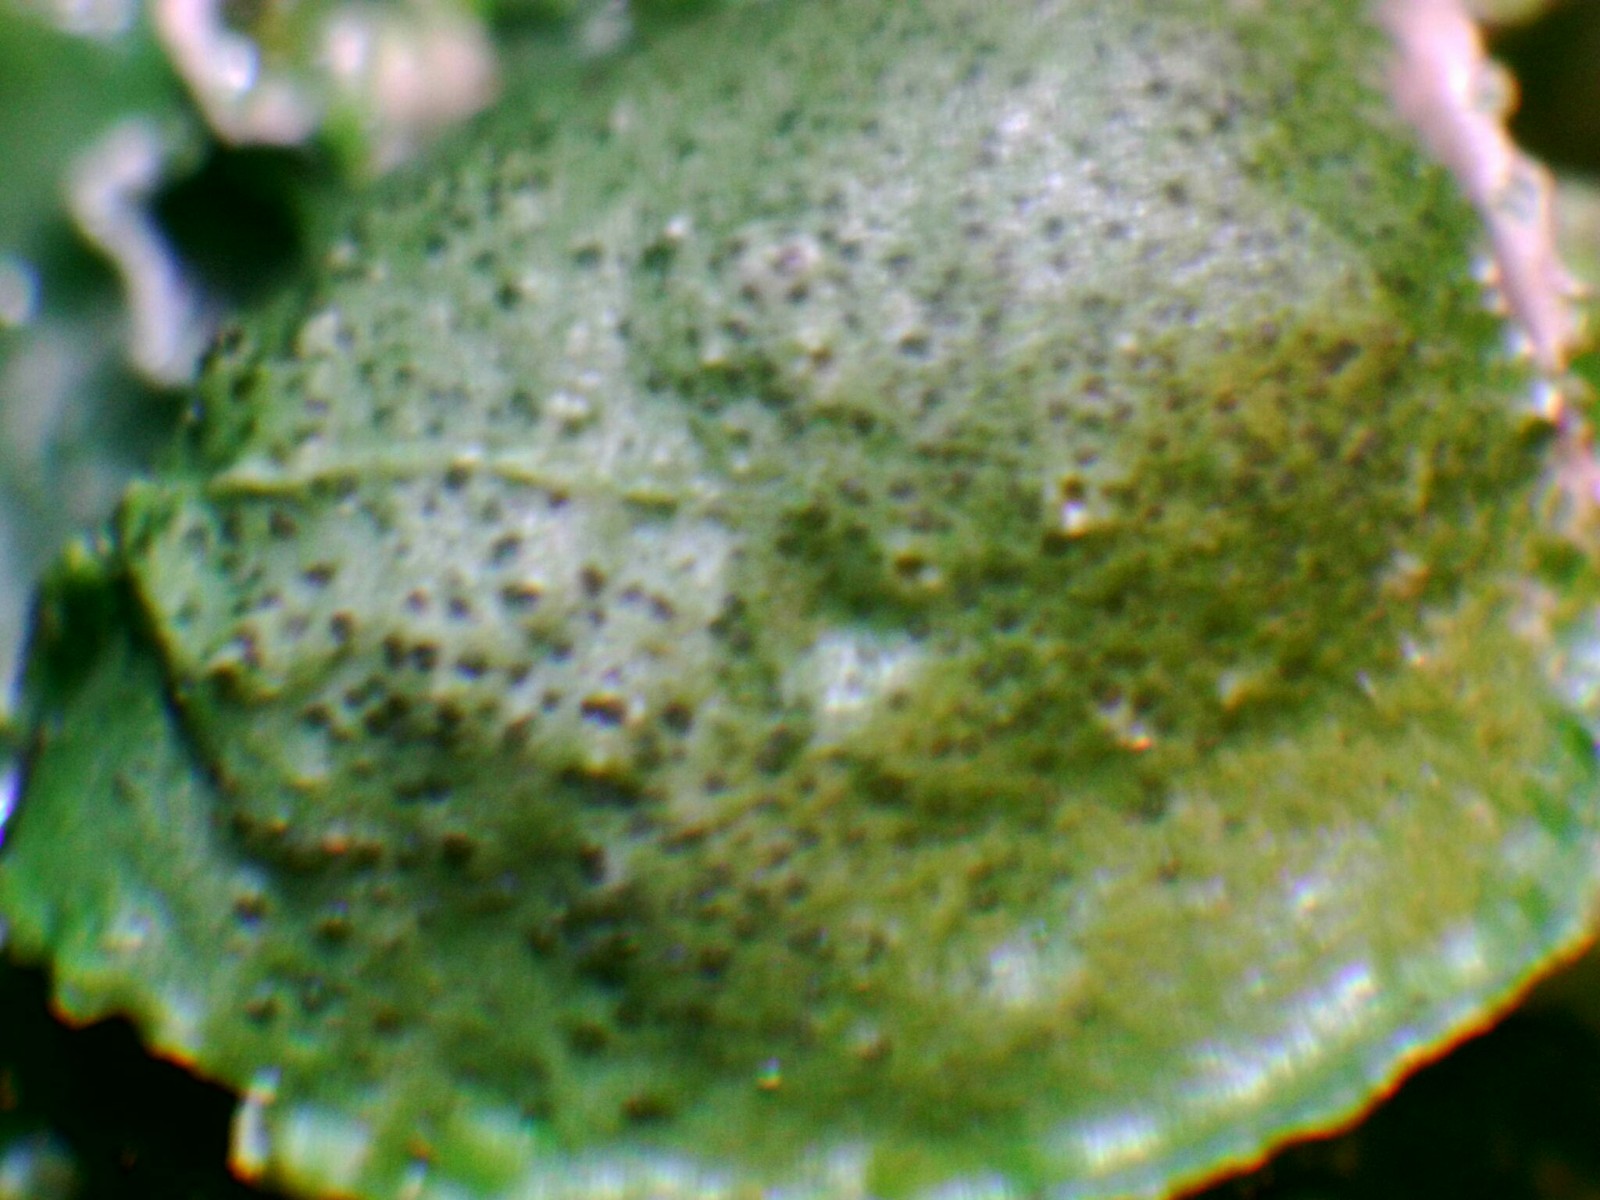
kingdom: Fungi
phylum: Ascomycota
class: Lecanoromycetes
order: Lecanorales
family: Parmeliaceae
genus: Pleurosticta
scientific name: Pleurosticta acetabulum
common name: stor skållav
